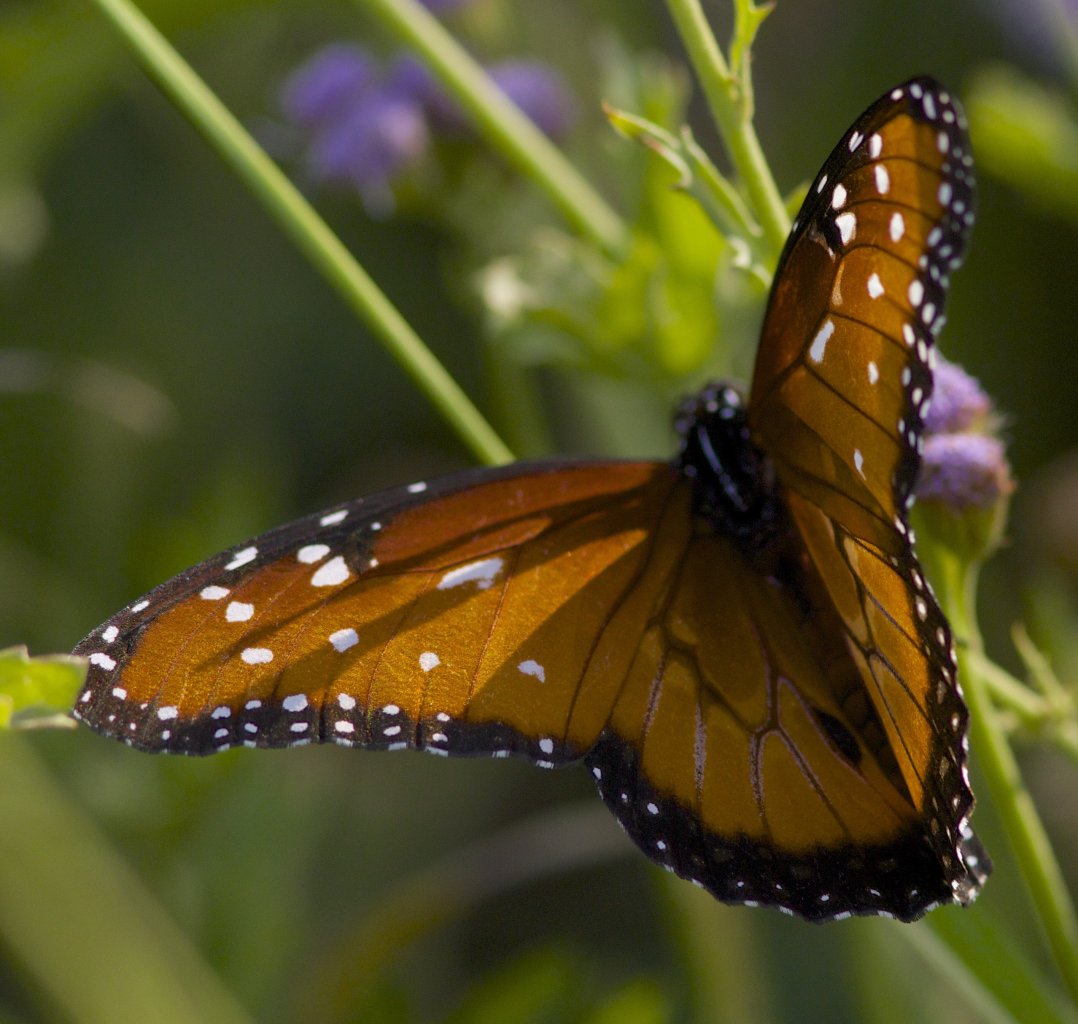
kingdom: Animalia
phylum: Arthropoda
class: Insecta
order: Lepidoptera
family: Nymphalidae
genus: Danaus
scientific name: Danaus gilippus
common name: Queen
